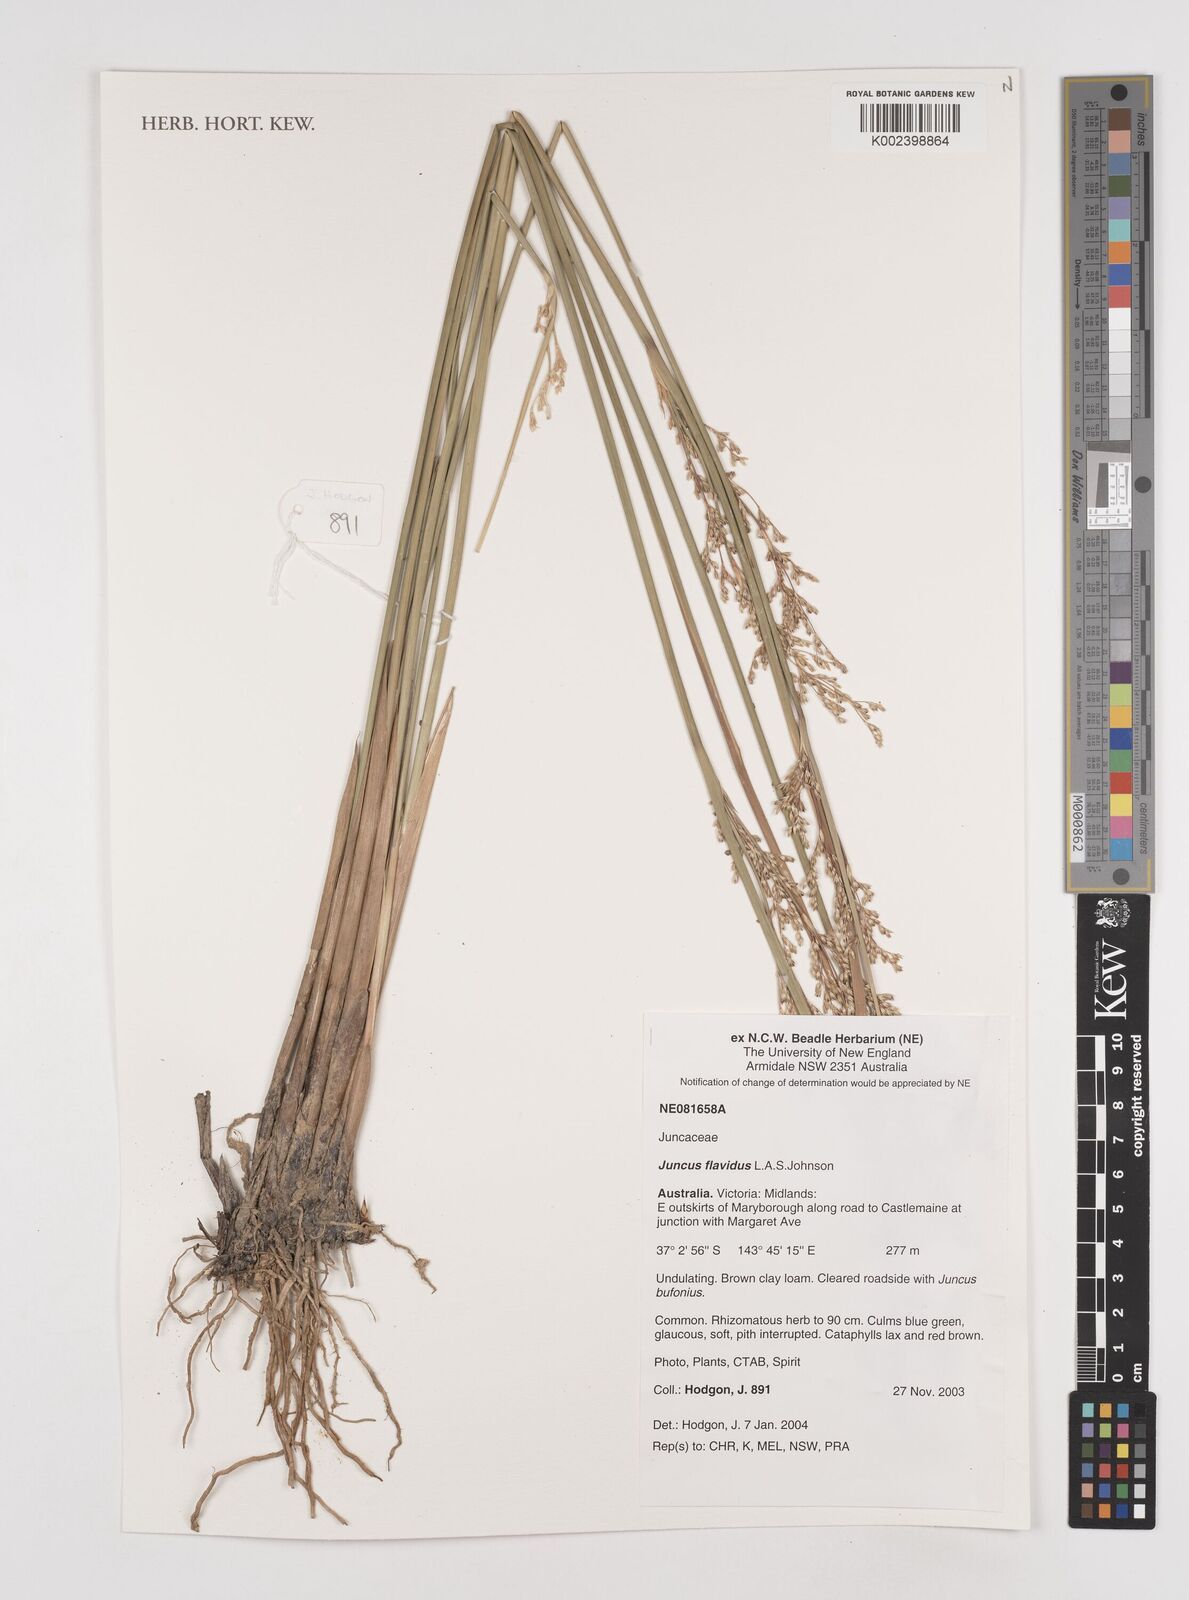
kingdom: Plantae
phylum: Tracheophyta
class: Liliopsida
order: Poales
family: Juncaceae
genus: Juncus
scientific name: Juncus flavidus
